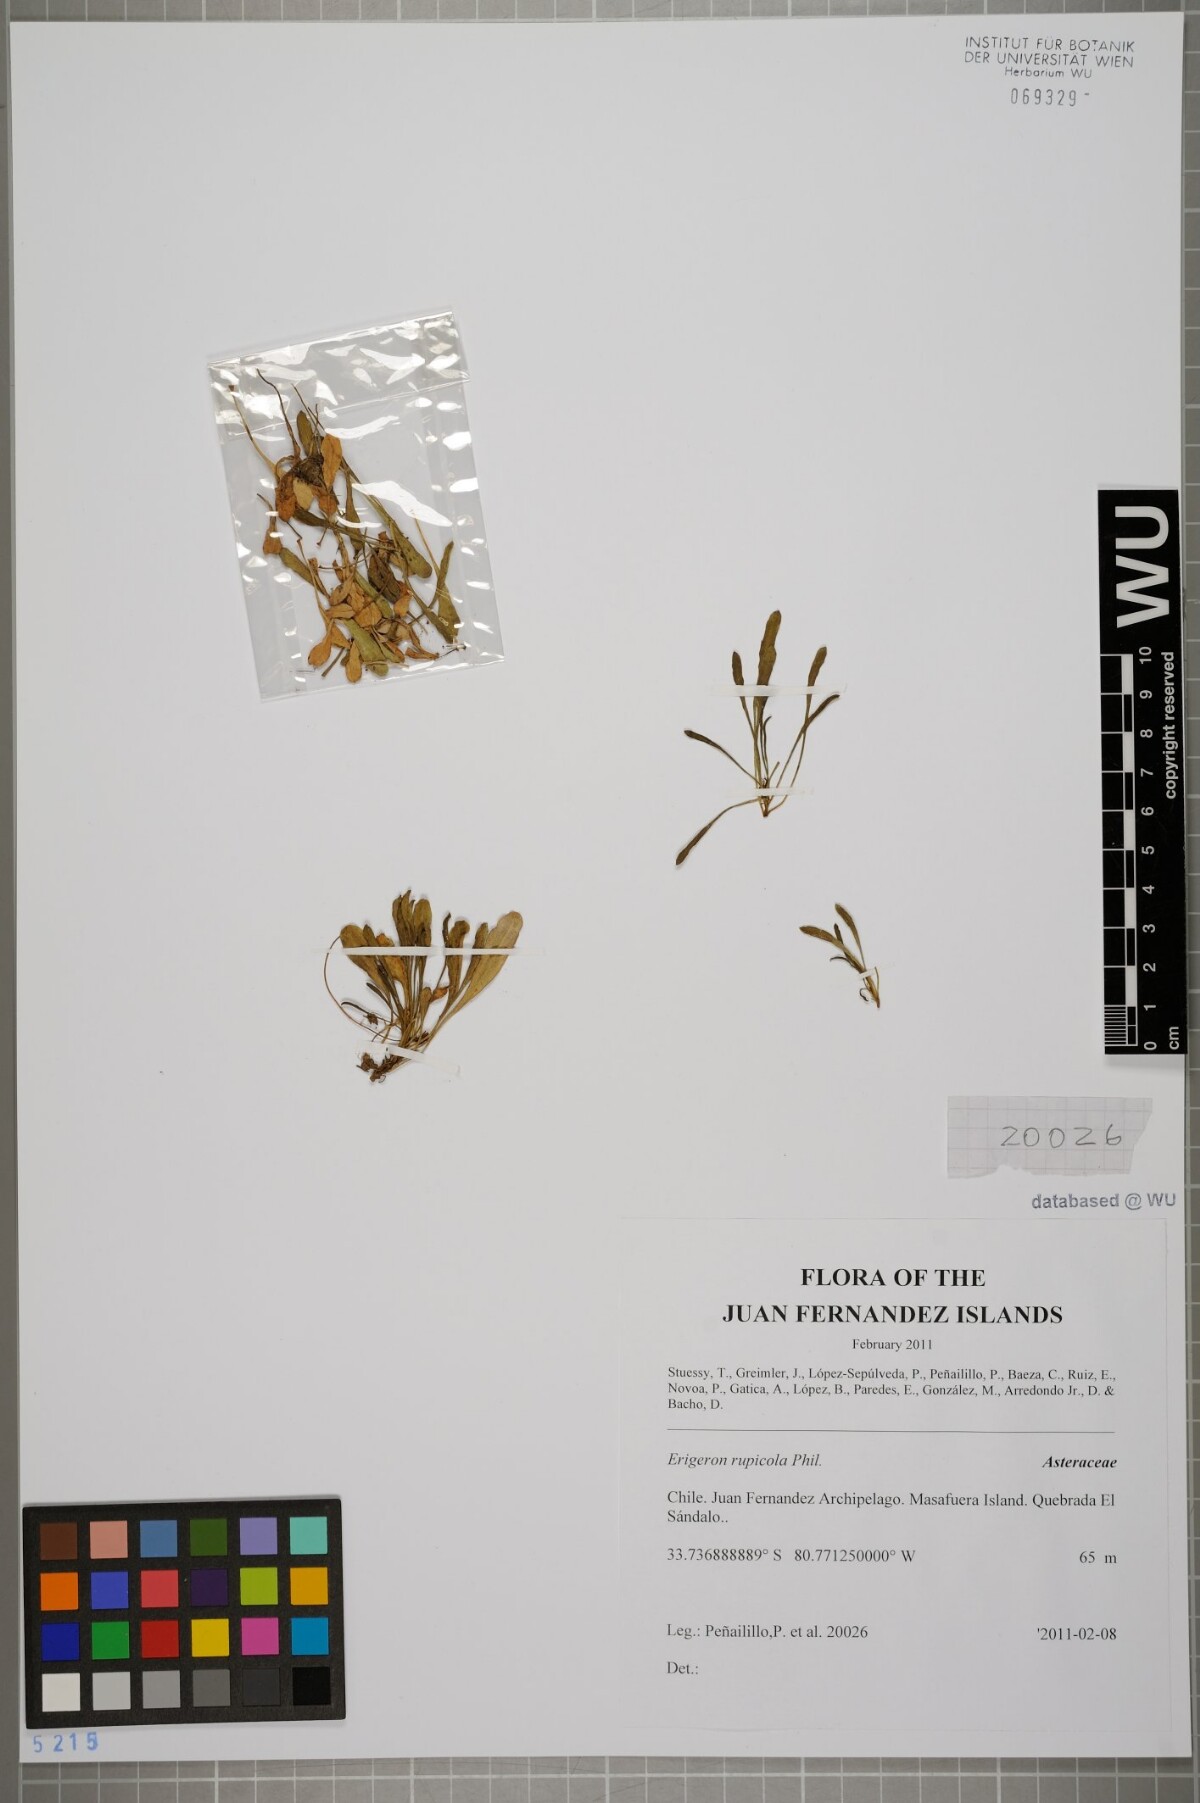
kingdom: Plantae
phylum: Tracheophyta
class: Magnoliopsida
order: Asterales
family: Asteraceae
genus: Erigeron
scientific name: Erigeron rupicola
